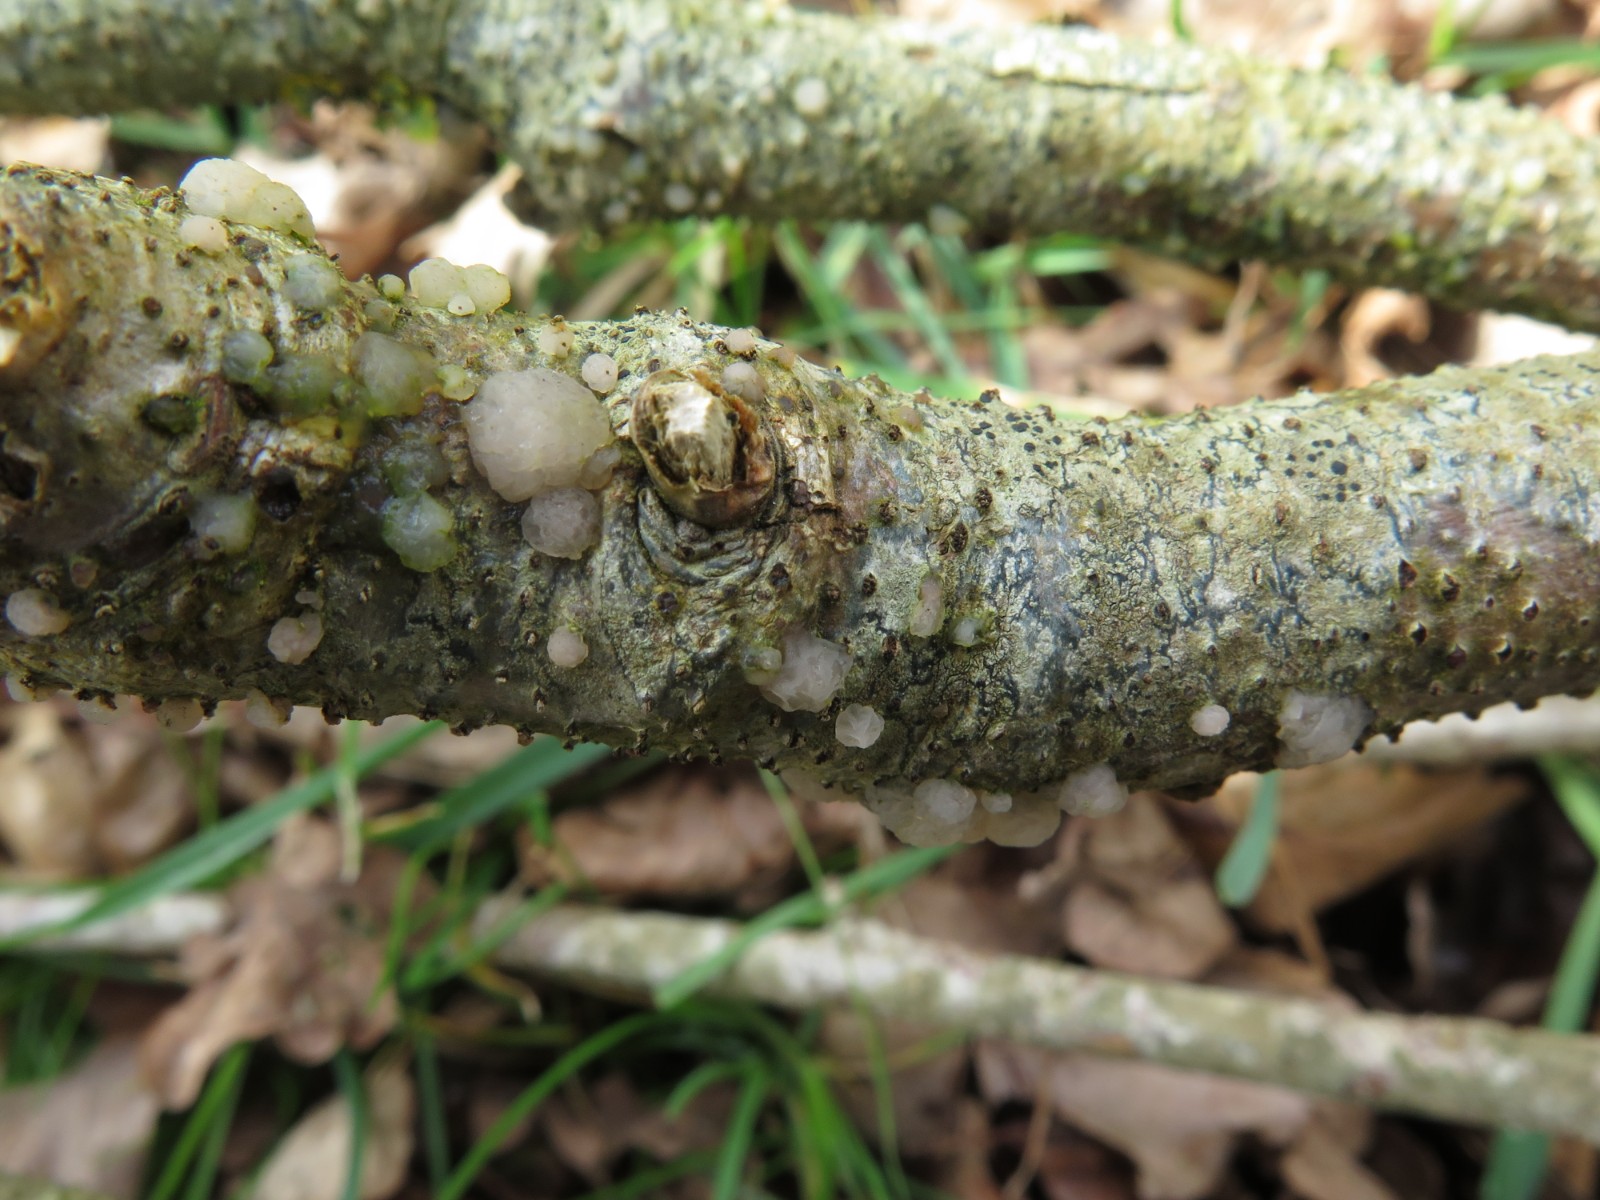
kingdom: Fungi
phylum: Basidiomycota
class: Tremellomycetes
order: Tremellales
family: Tremellaceae
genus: Tremella
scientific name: Tremella globispora
